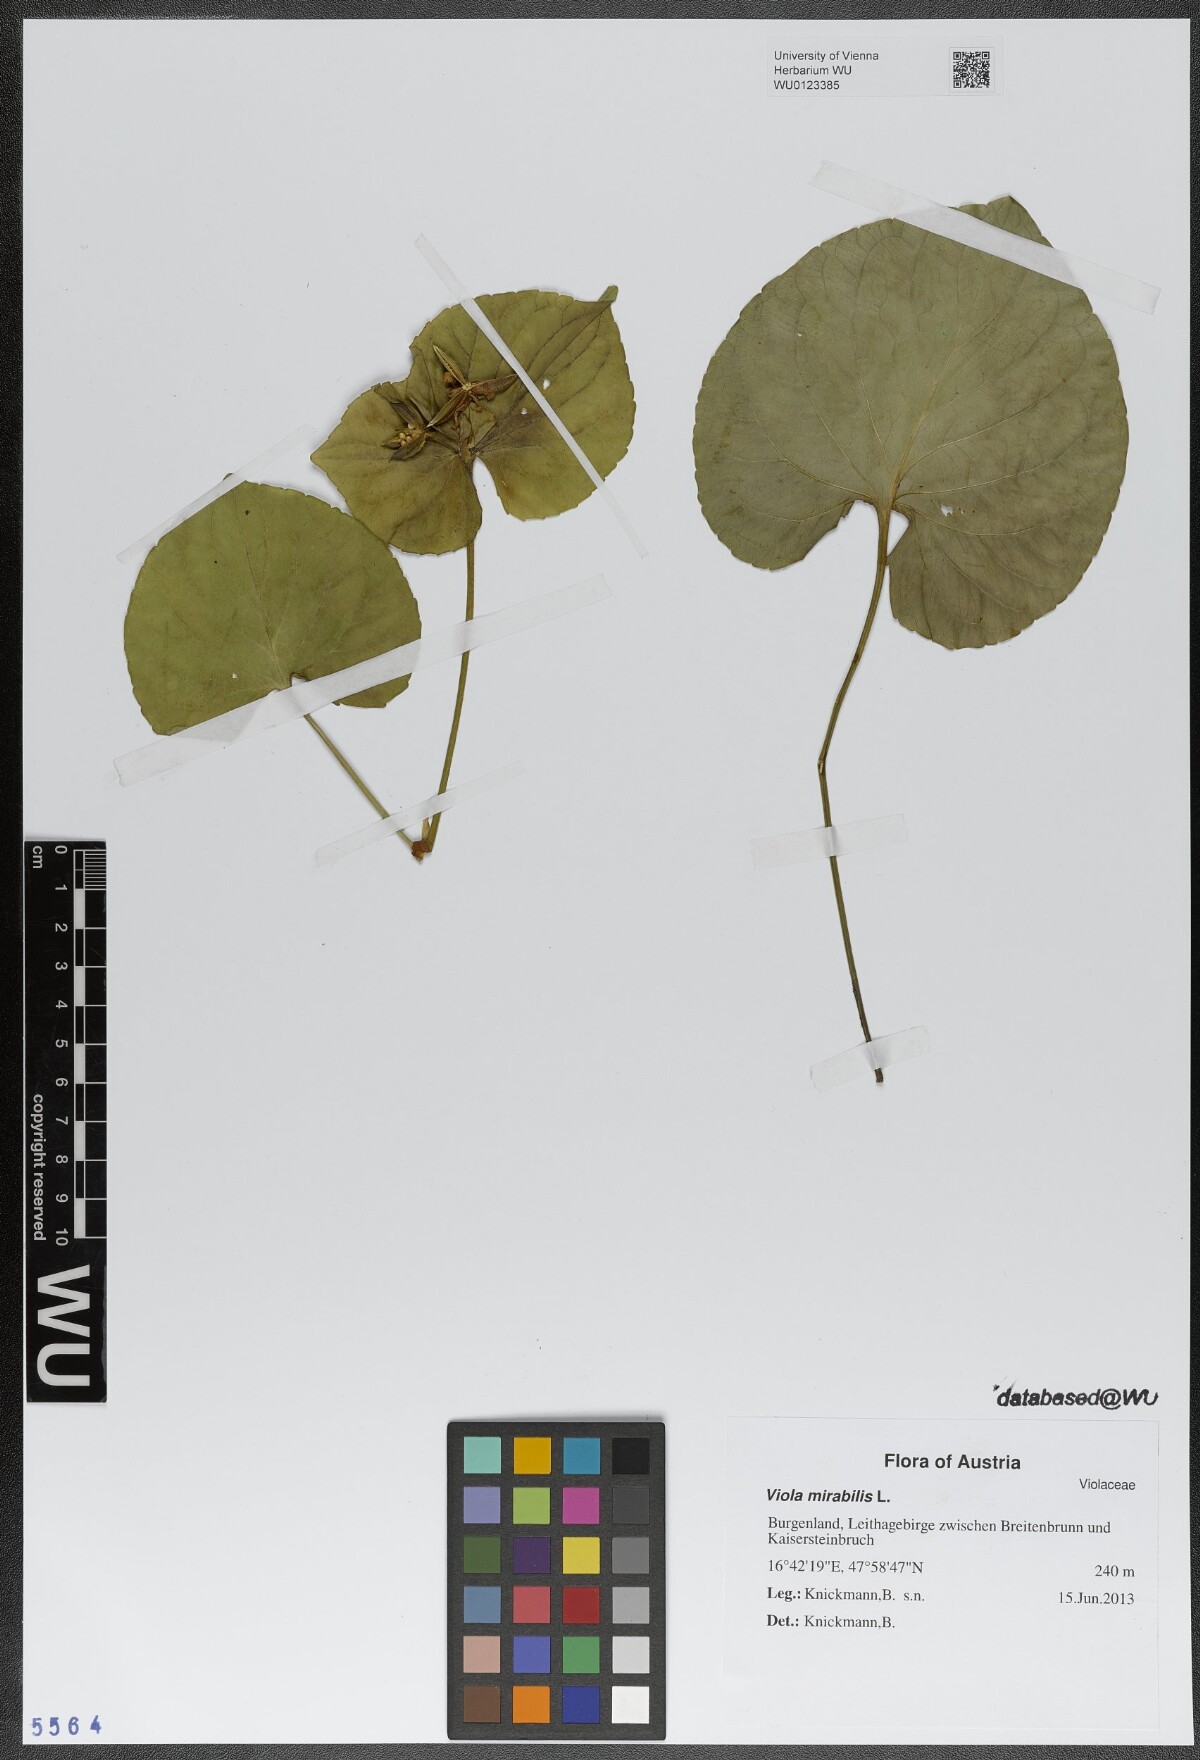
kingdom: Plantae
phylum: Tracheophyta
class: Magnoliopsida
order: Malpighiales
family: Violaceae
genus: Viola
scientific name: Viola mirabilis
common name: Wonder violet
